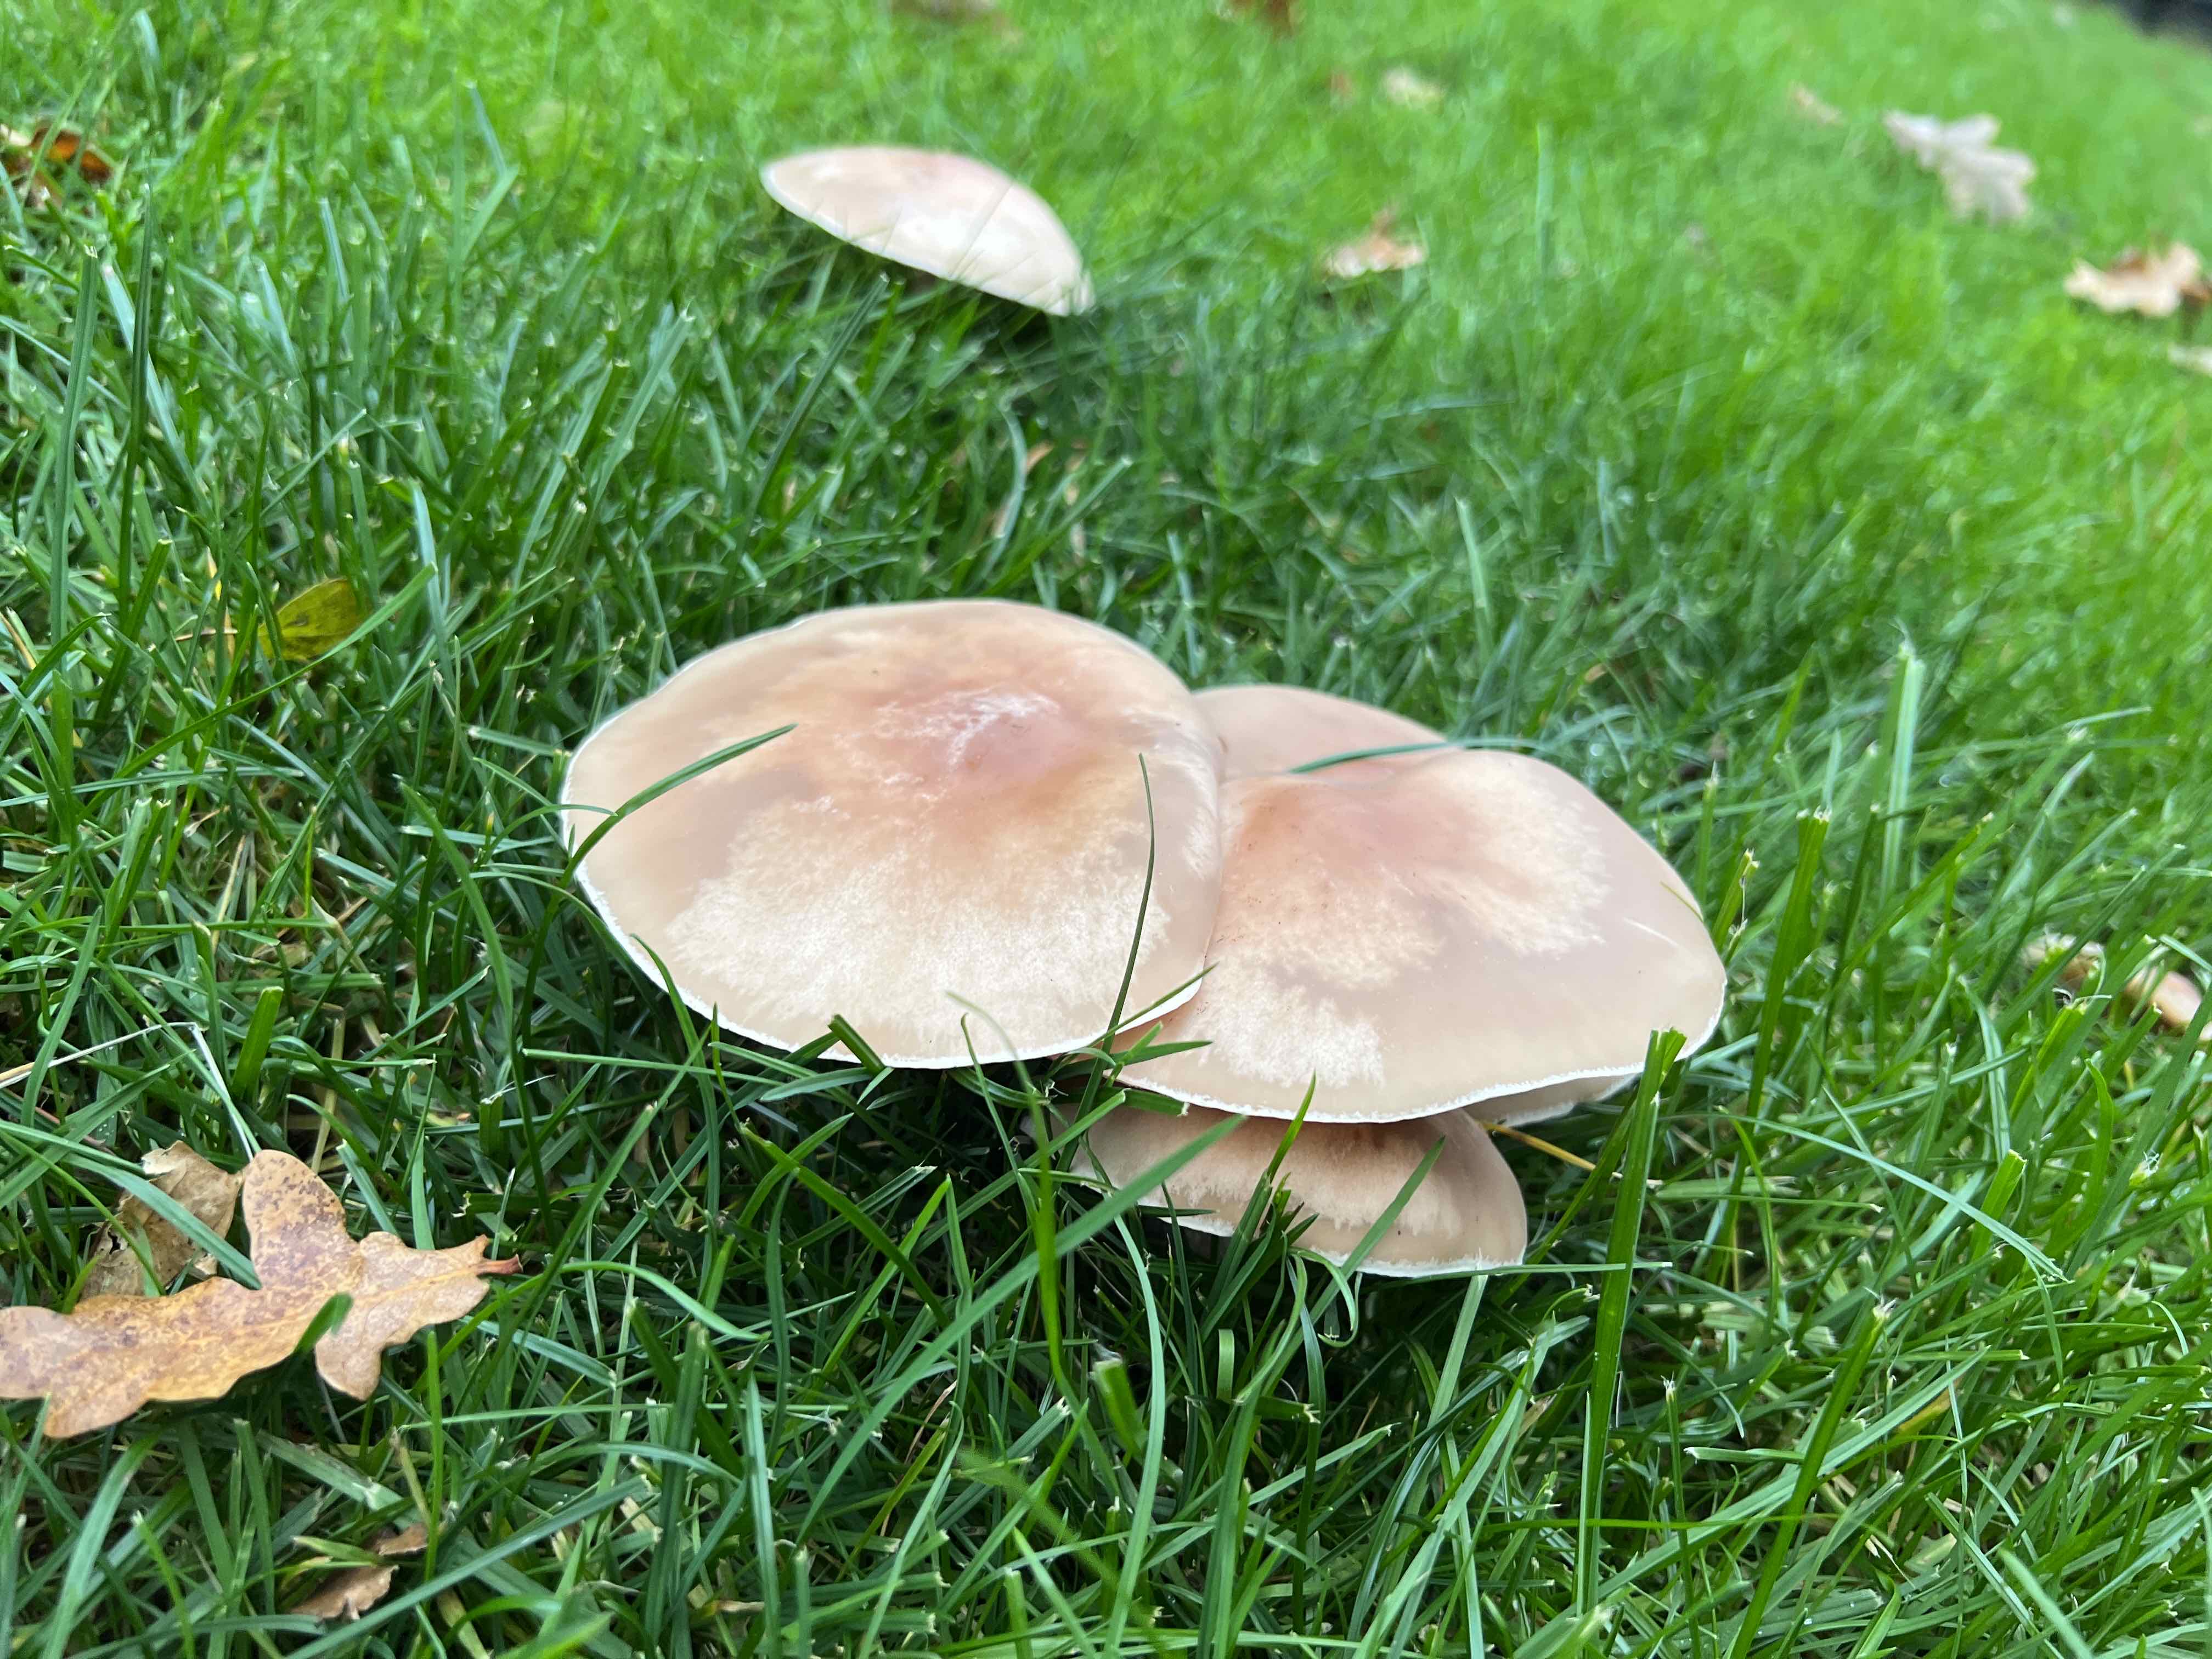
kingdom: Fungi
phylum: Basidiomycota
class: Agaricomycetes
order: Agaricales
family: Tricholomataceae
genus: Lepista
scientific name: Lepista personata
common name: bleg hekseringshat
